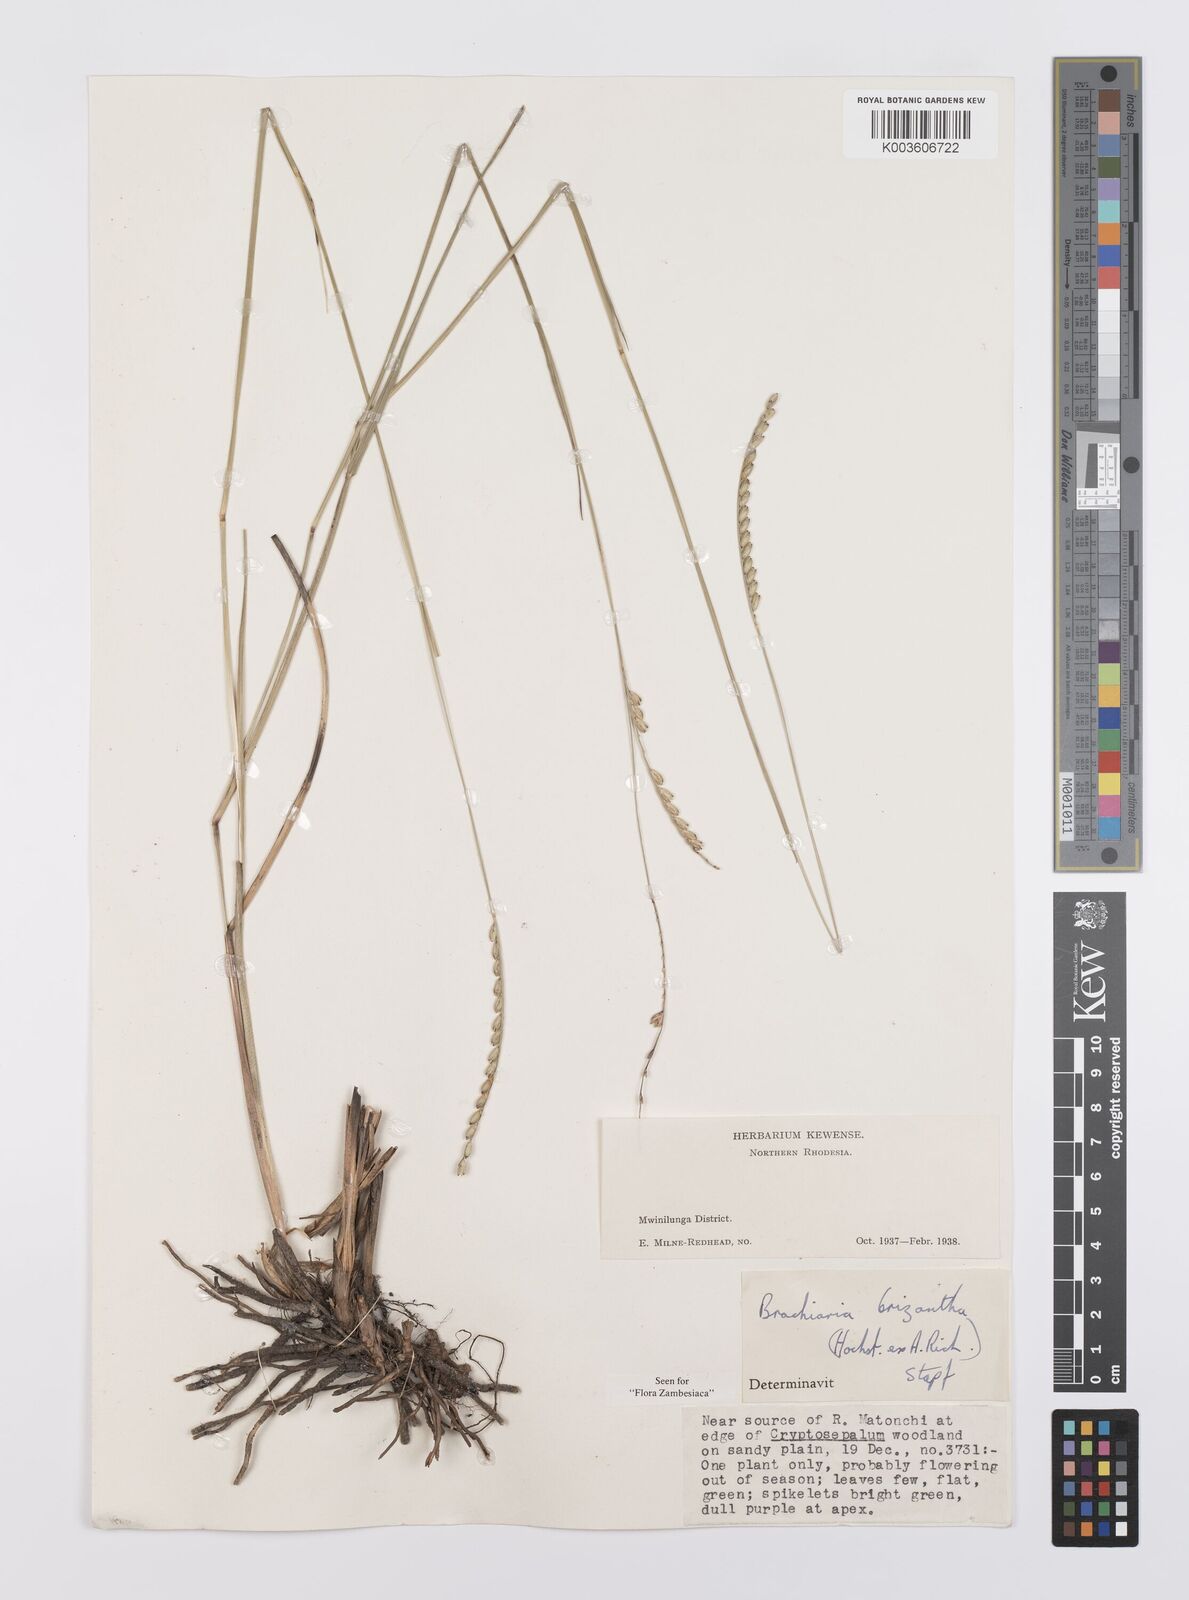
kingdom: Plantae
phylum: Tracheophyta
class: Liliopsida
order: Poales
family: Poaceae
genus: Urochloa
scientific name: Urochloa brizantha
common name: Palisade signalgrass
